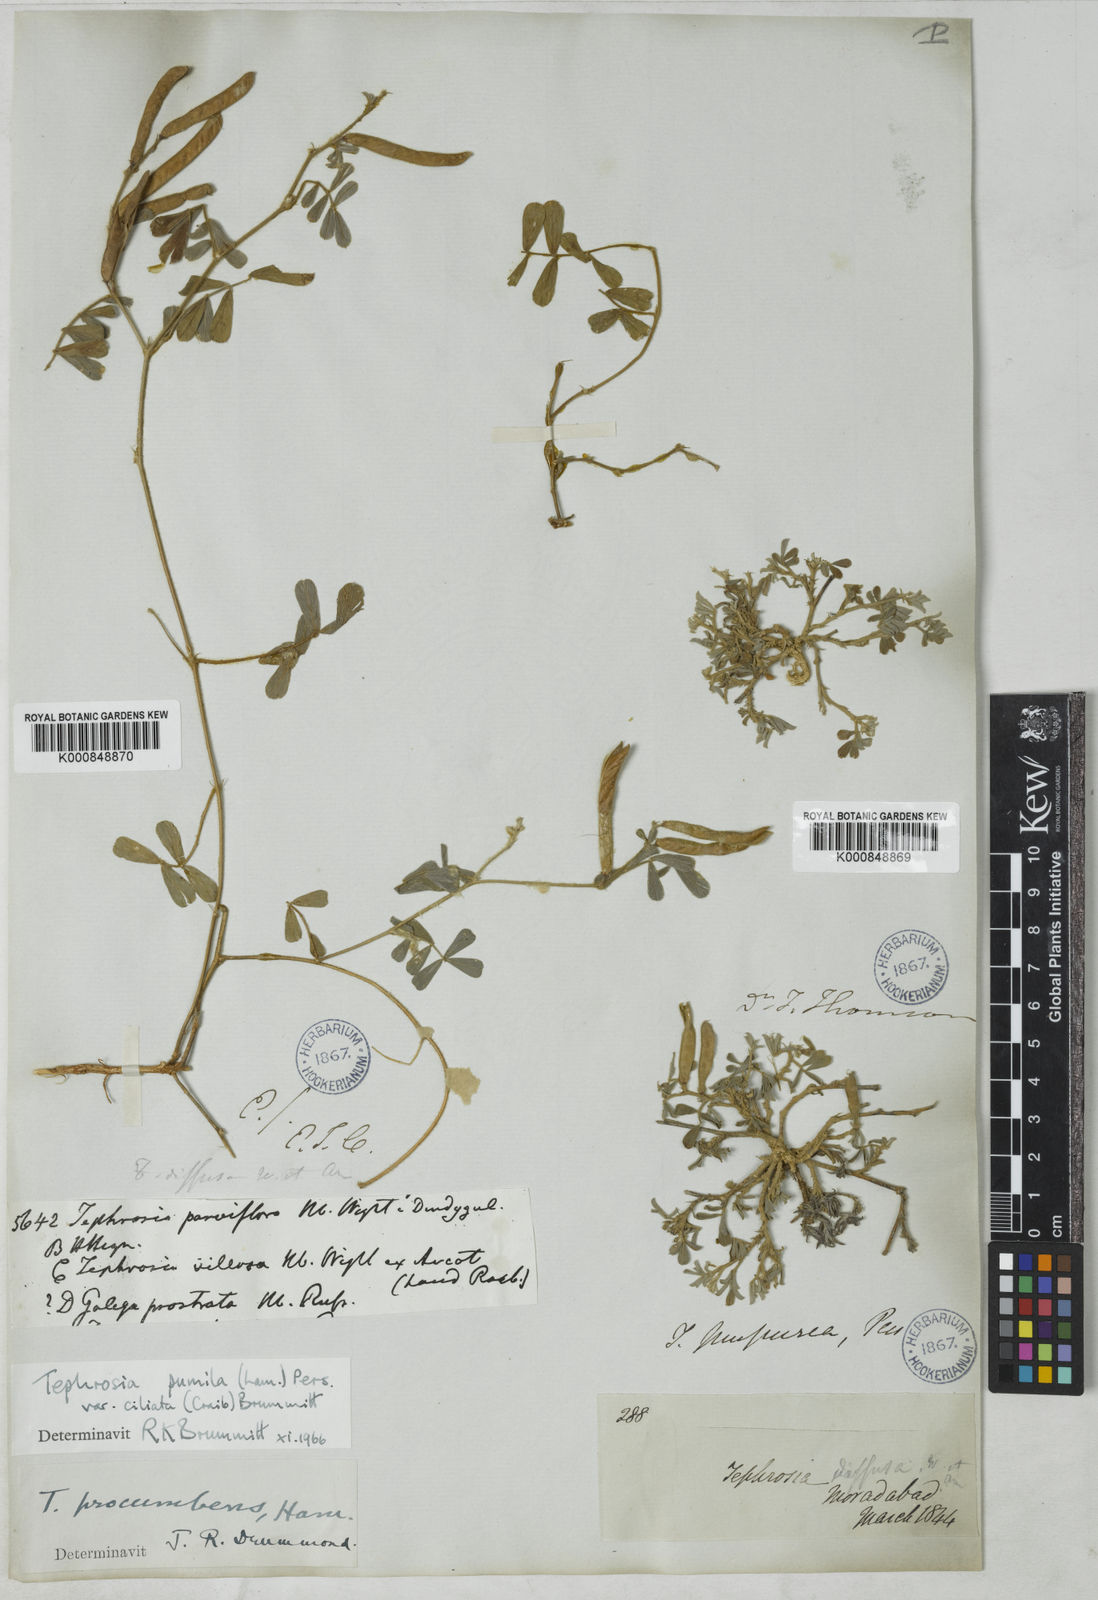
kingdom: Plantae
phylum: Tracheophyta
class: Magnoliopsida
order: Fabales
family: Fabaceae
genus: Tephrosia
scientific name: Tephrosia pumila
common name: Indigo sauvage
